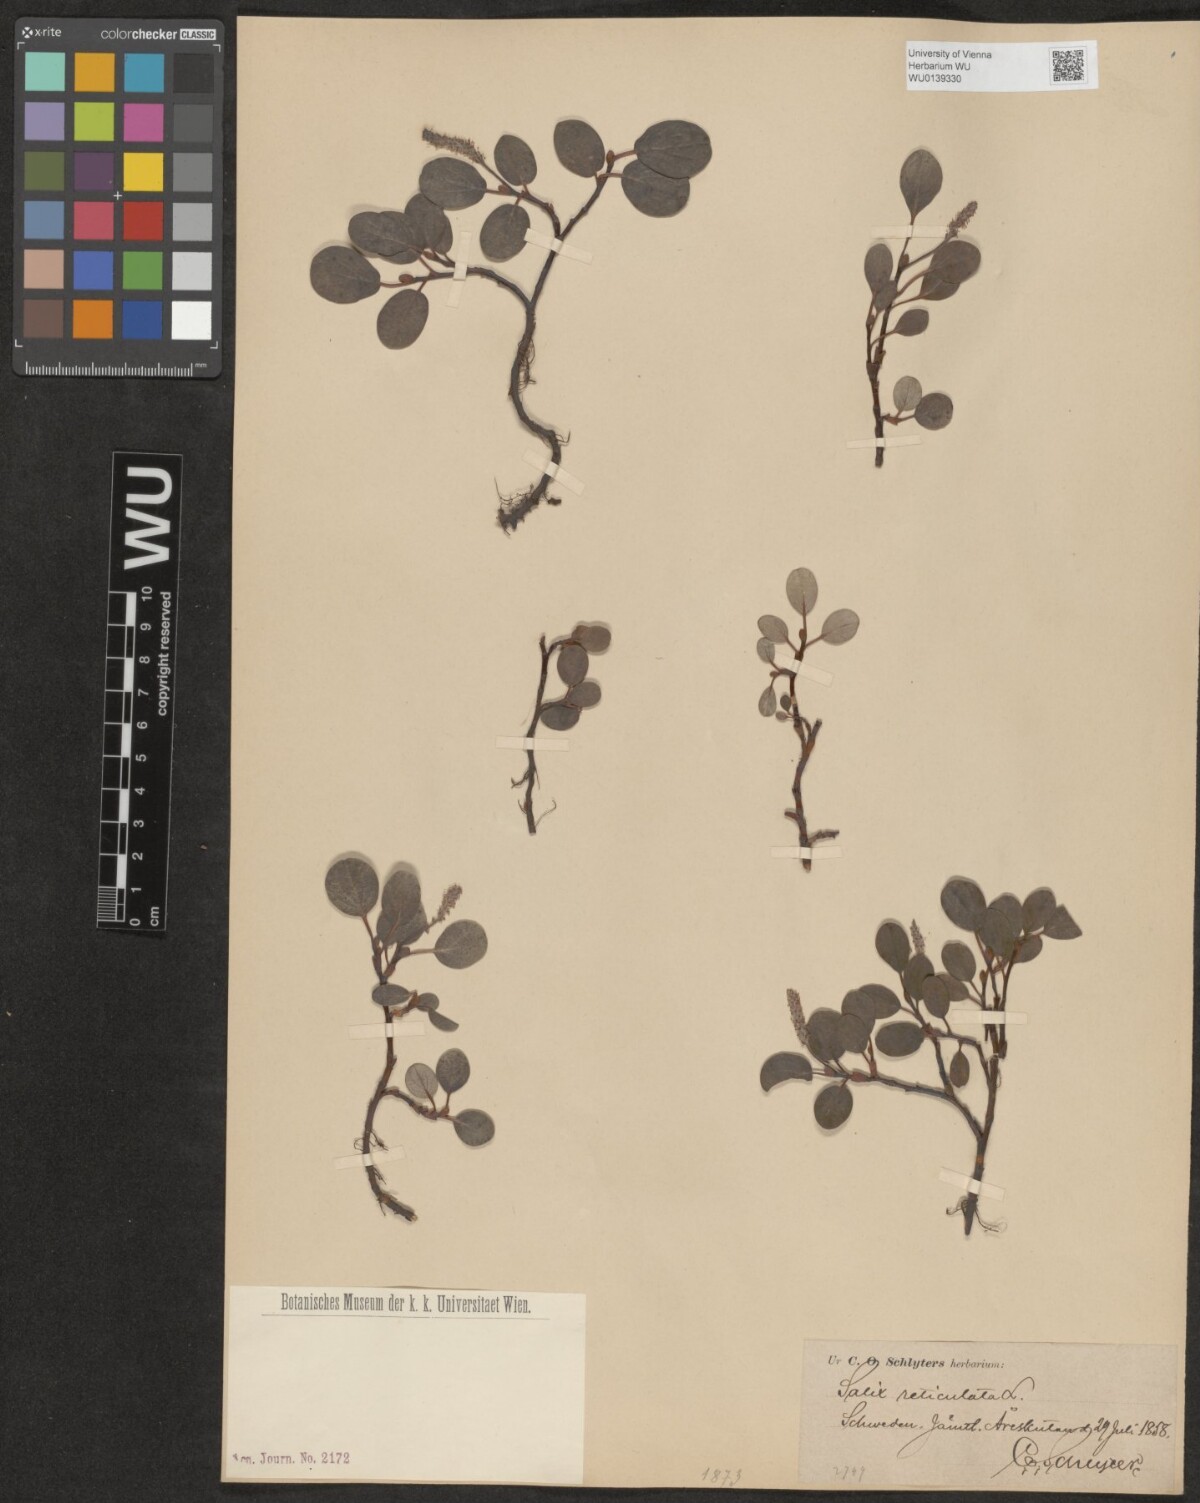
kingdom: Plantae
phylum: Tracheophyta
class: Magnoliopsida
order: Malpighiales
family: Salicaceae
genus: Salix
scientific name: Salix reticulata
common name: Net-leaved willow
